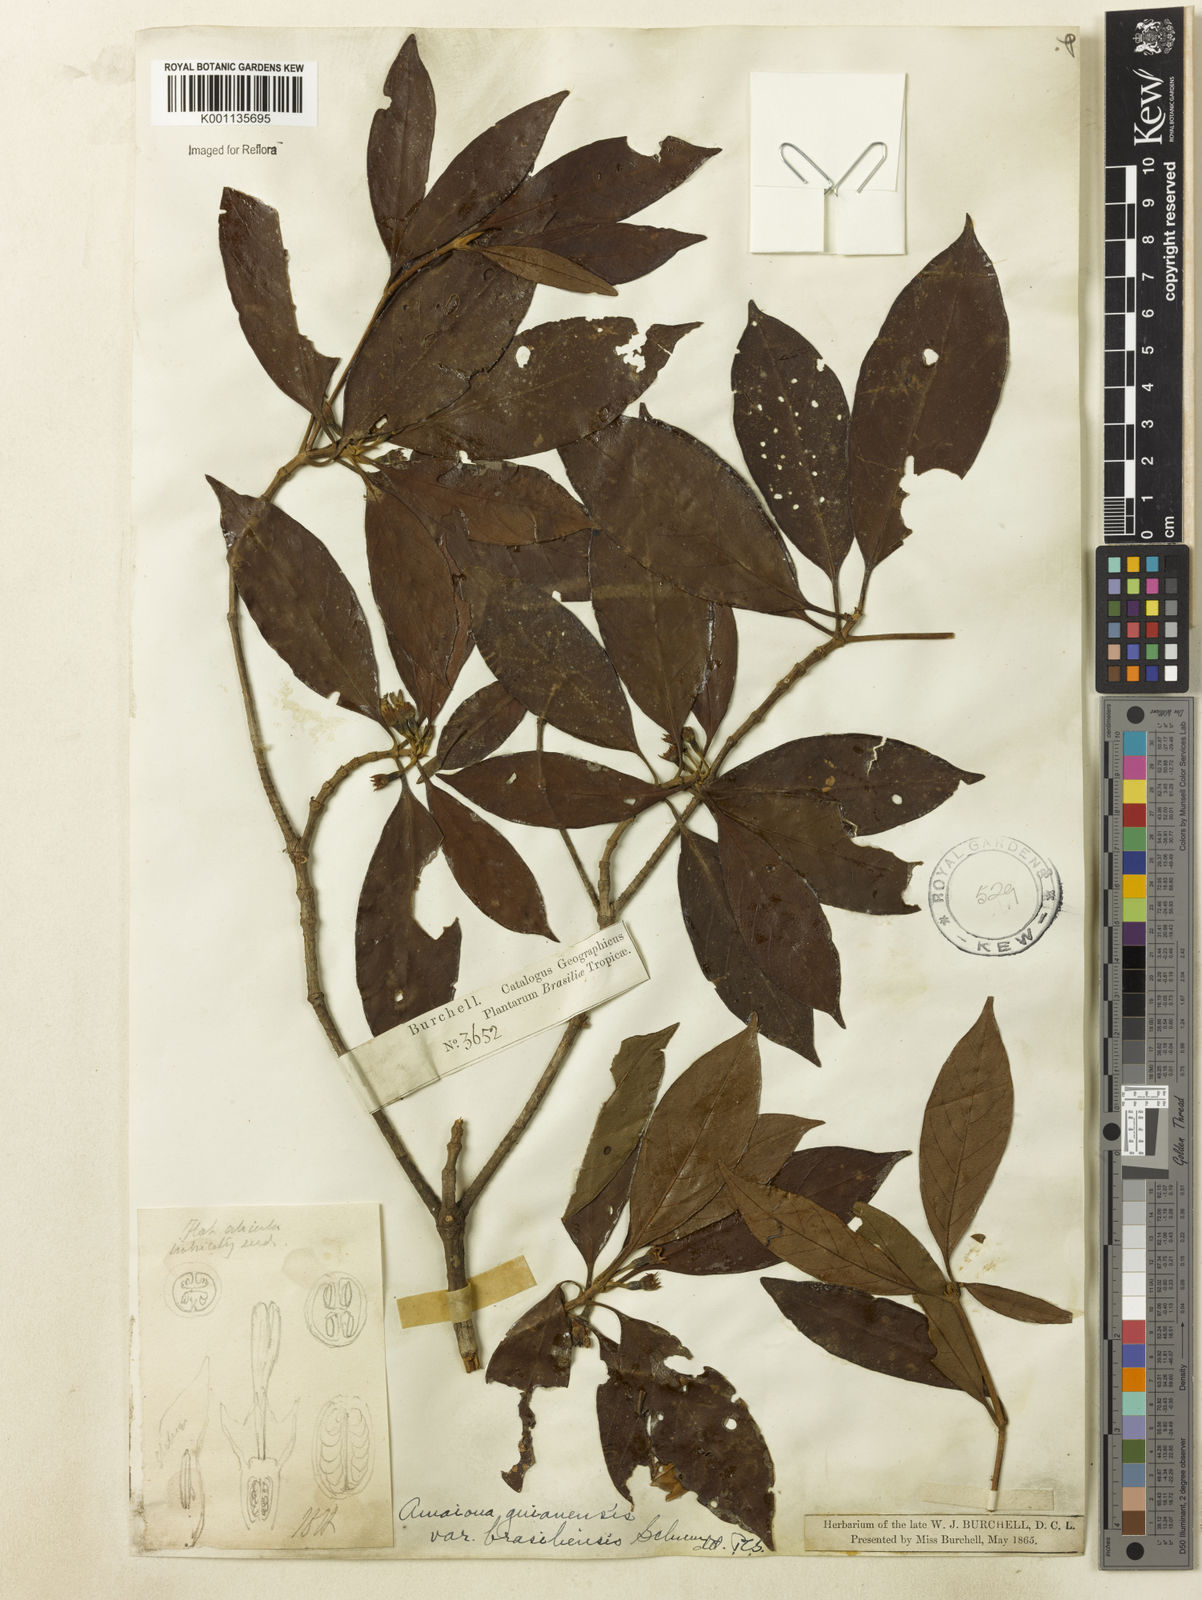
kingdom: Plantae
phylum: Tracheophyta
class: Magnoliopsida
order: Gentianales
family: Rubiaceae
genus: Amaioua
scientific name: Amaioua intermedia
